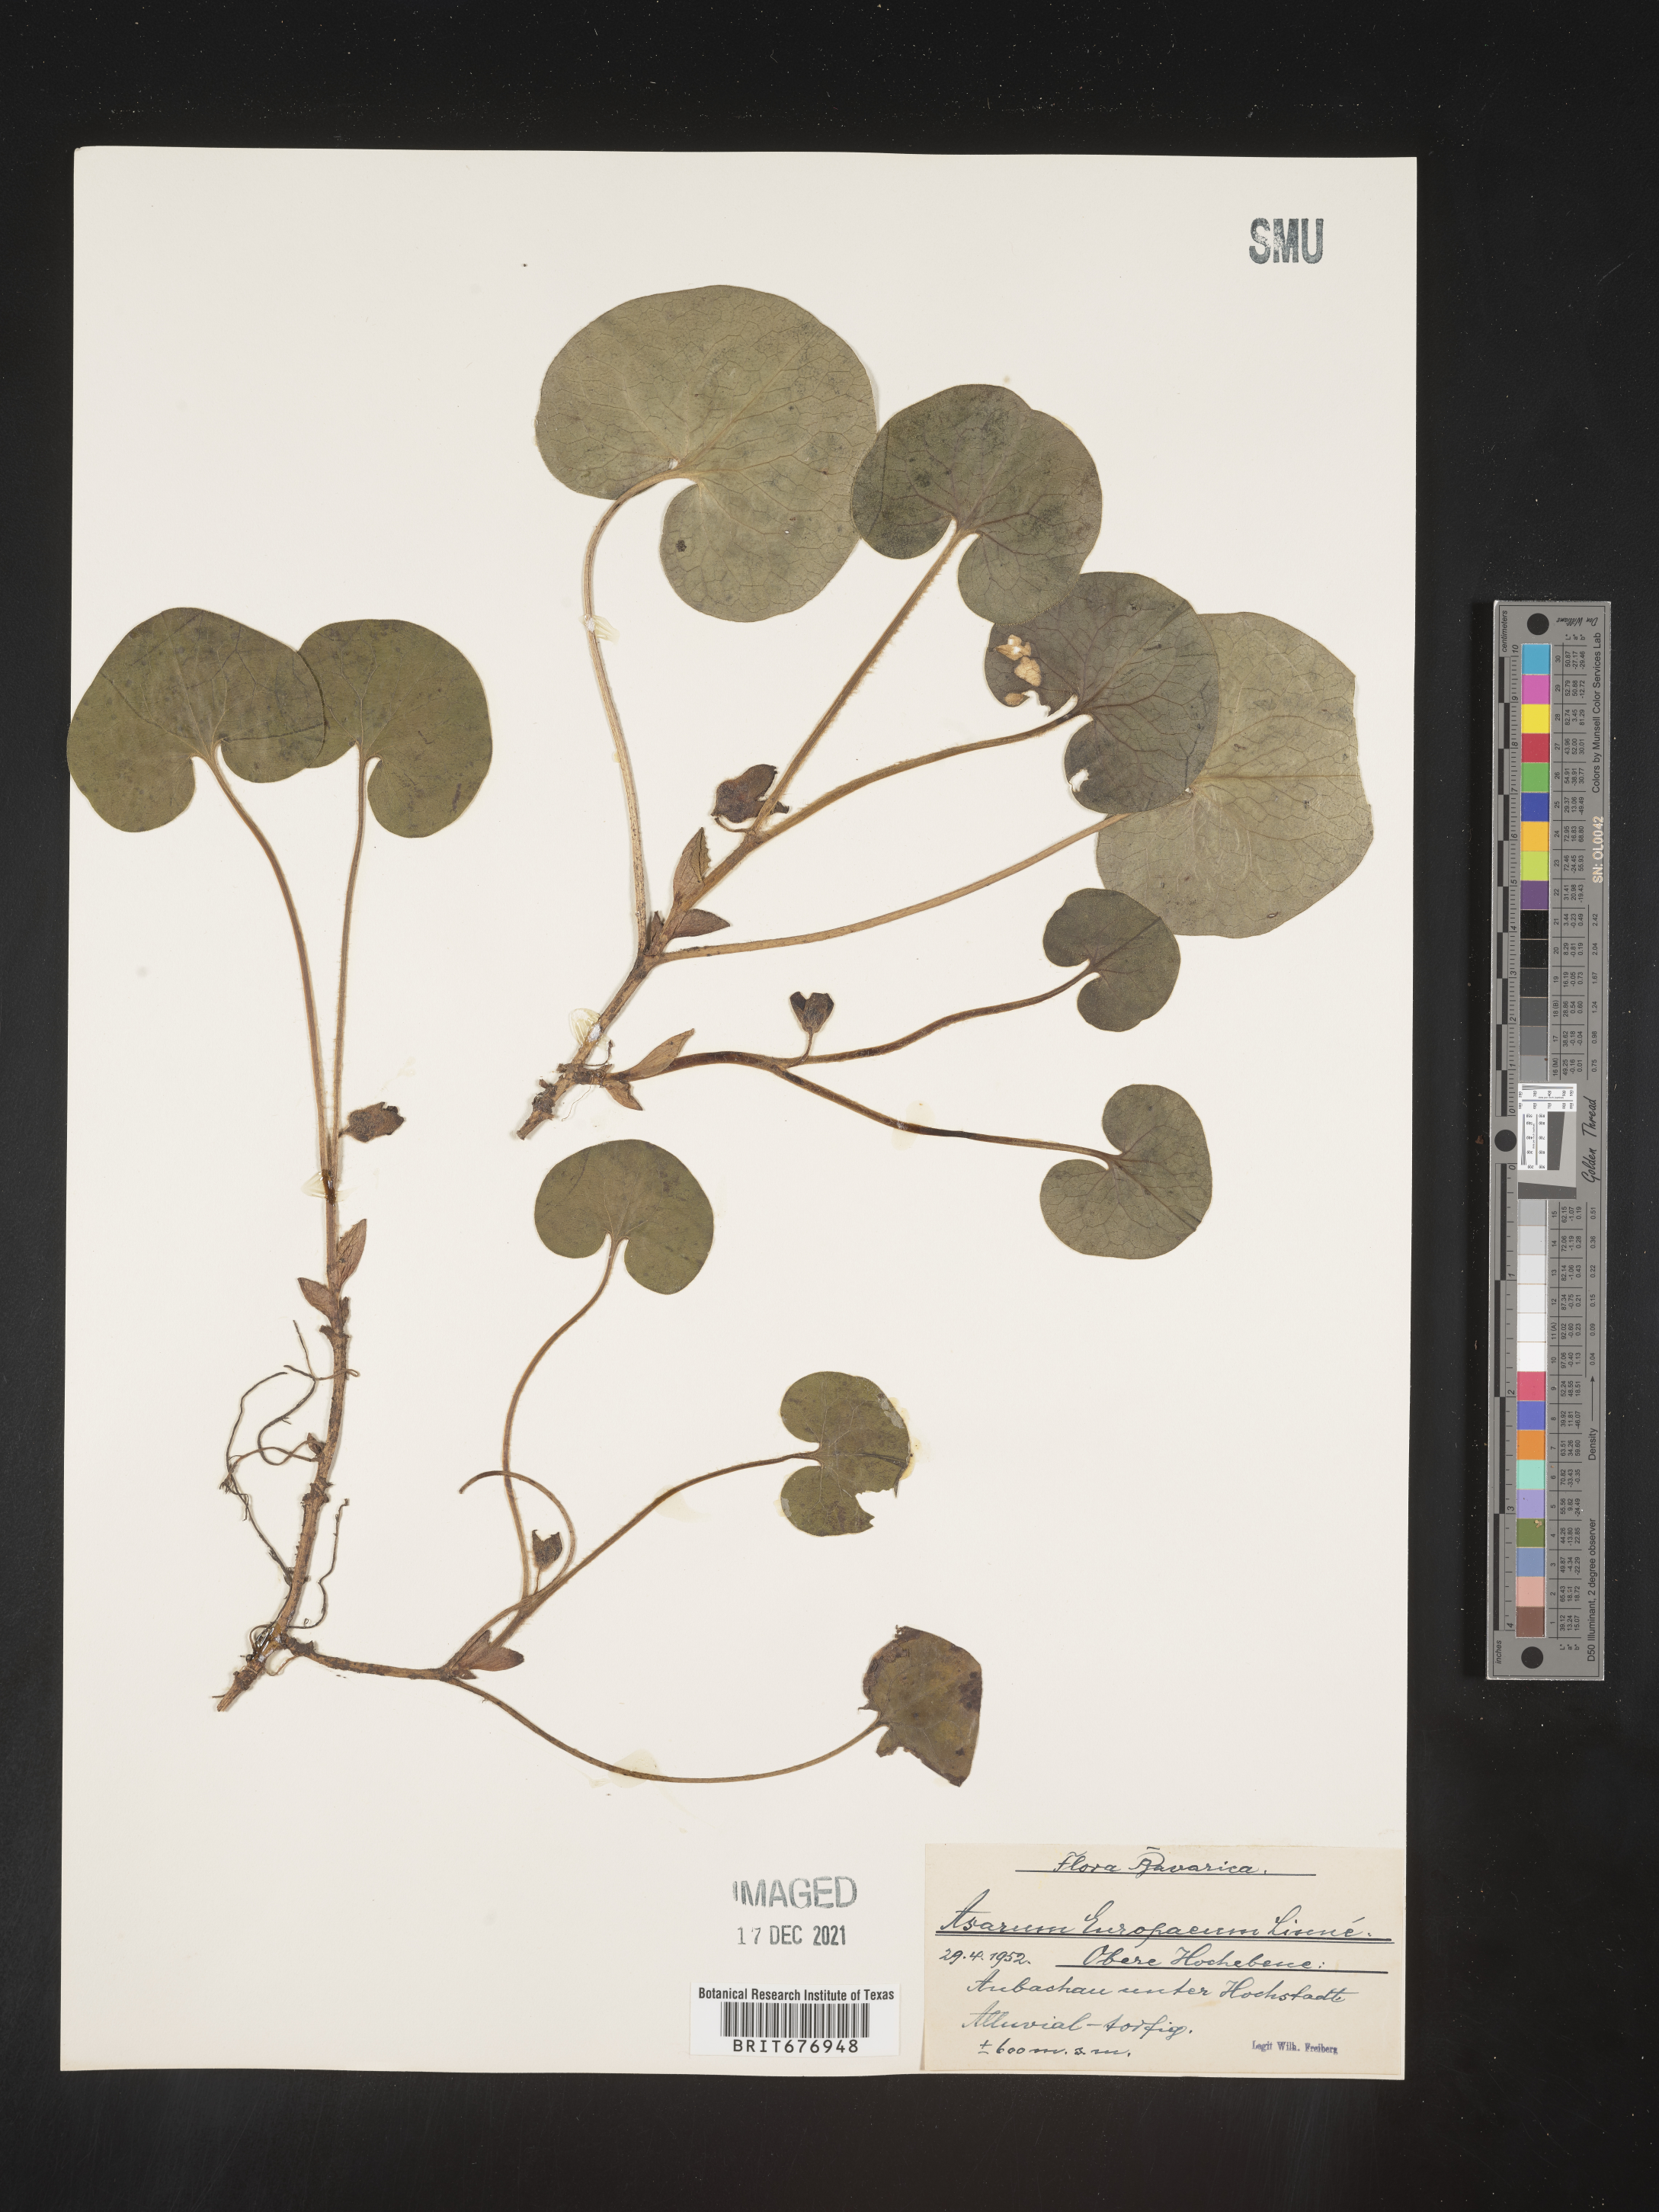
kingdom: Plantae
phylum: Tracheophyta
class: Magnoliopsida
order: Piperales
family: Aristolochiaceae
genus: Asarum
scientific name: Asarum
